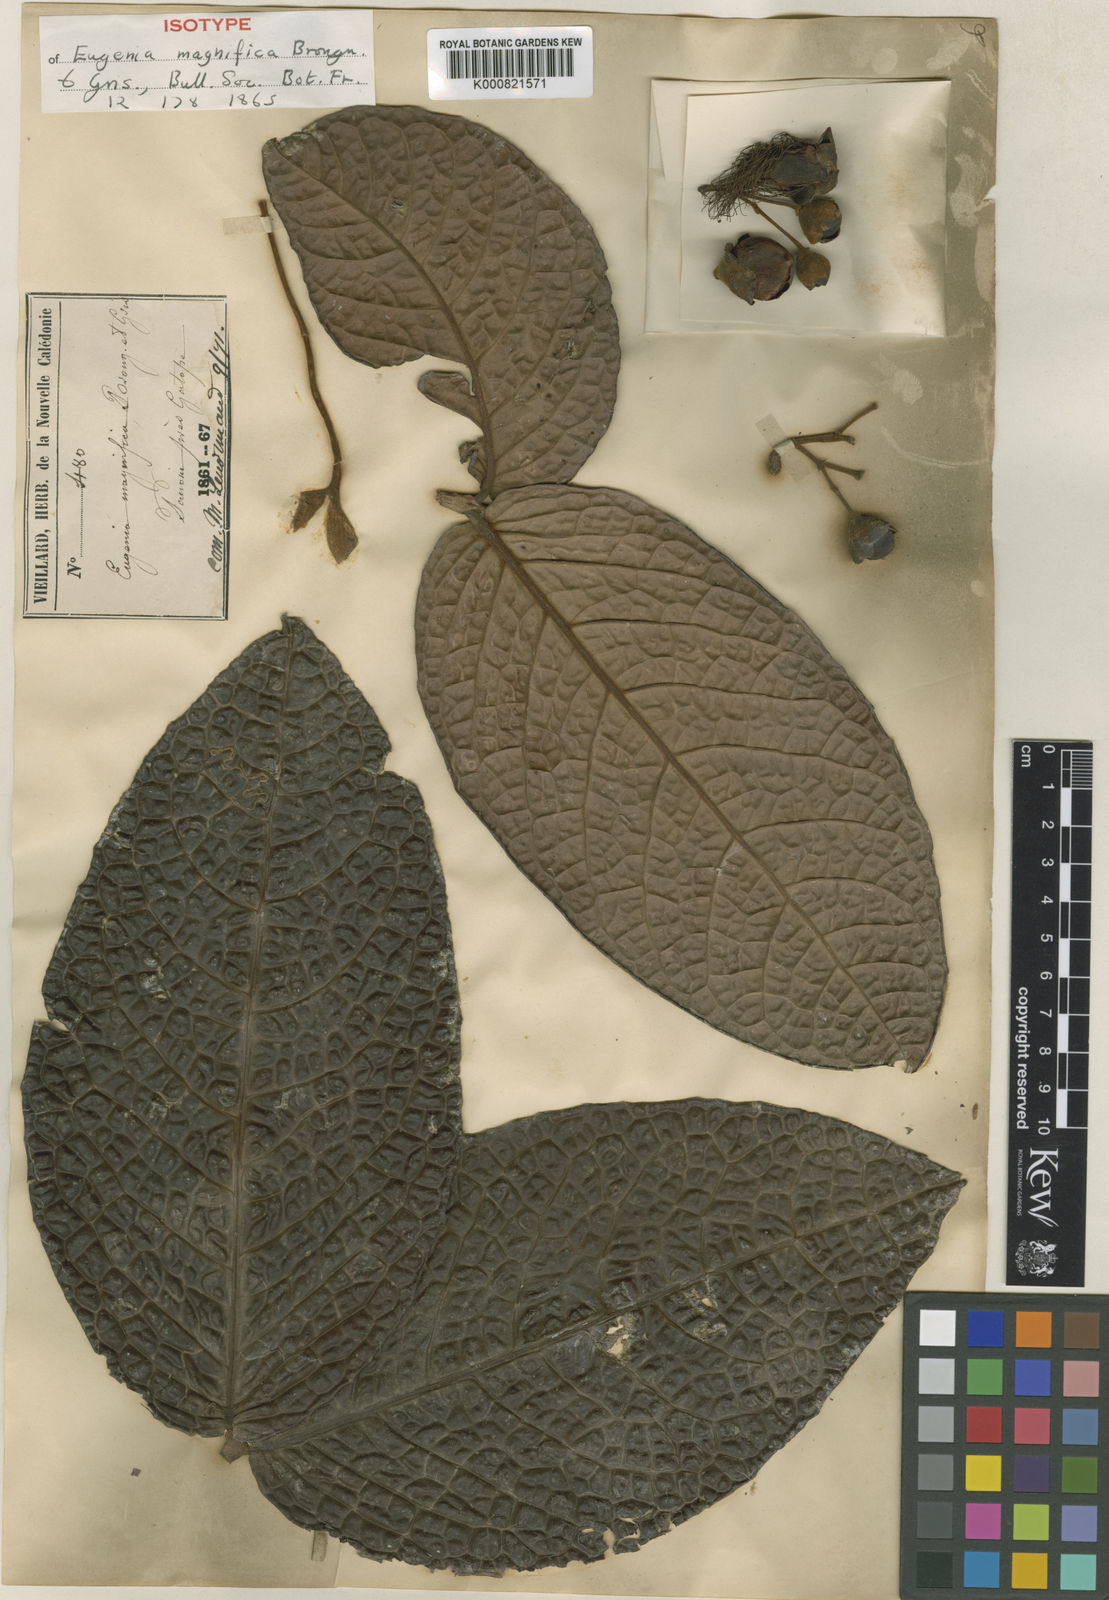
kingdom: Plantae
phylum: Tracheophyta
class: Magnoliopsida
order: Myrtales
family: Myrtaceae
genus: Eugenia
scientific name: Eugenia grisiana
